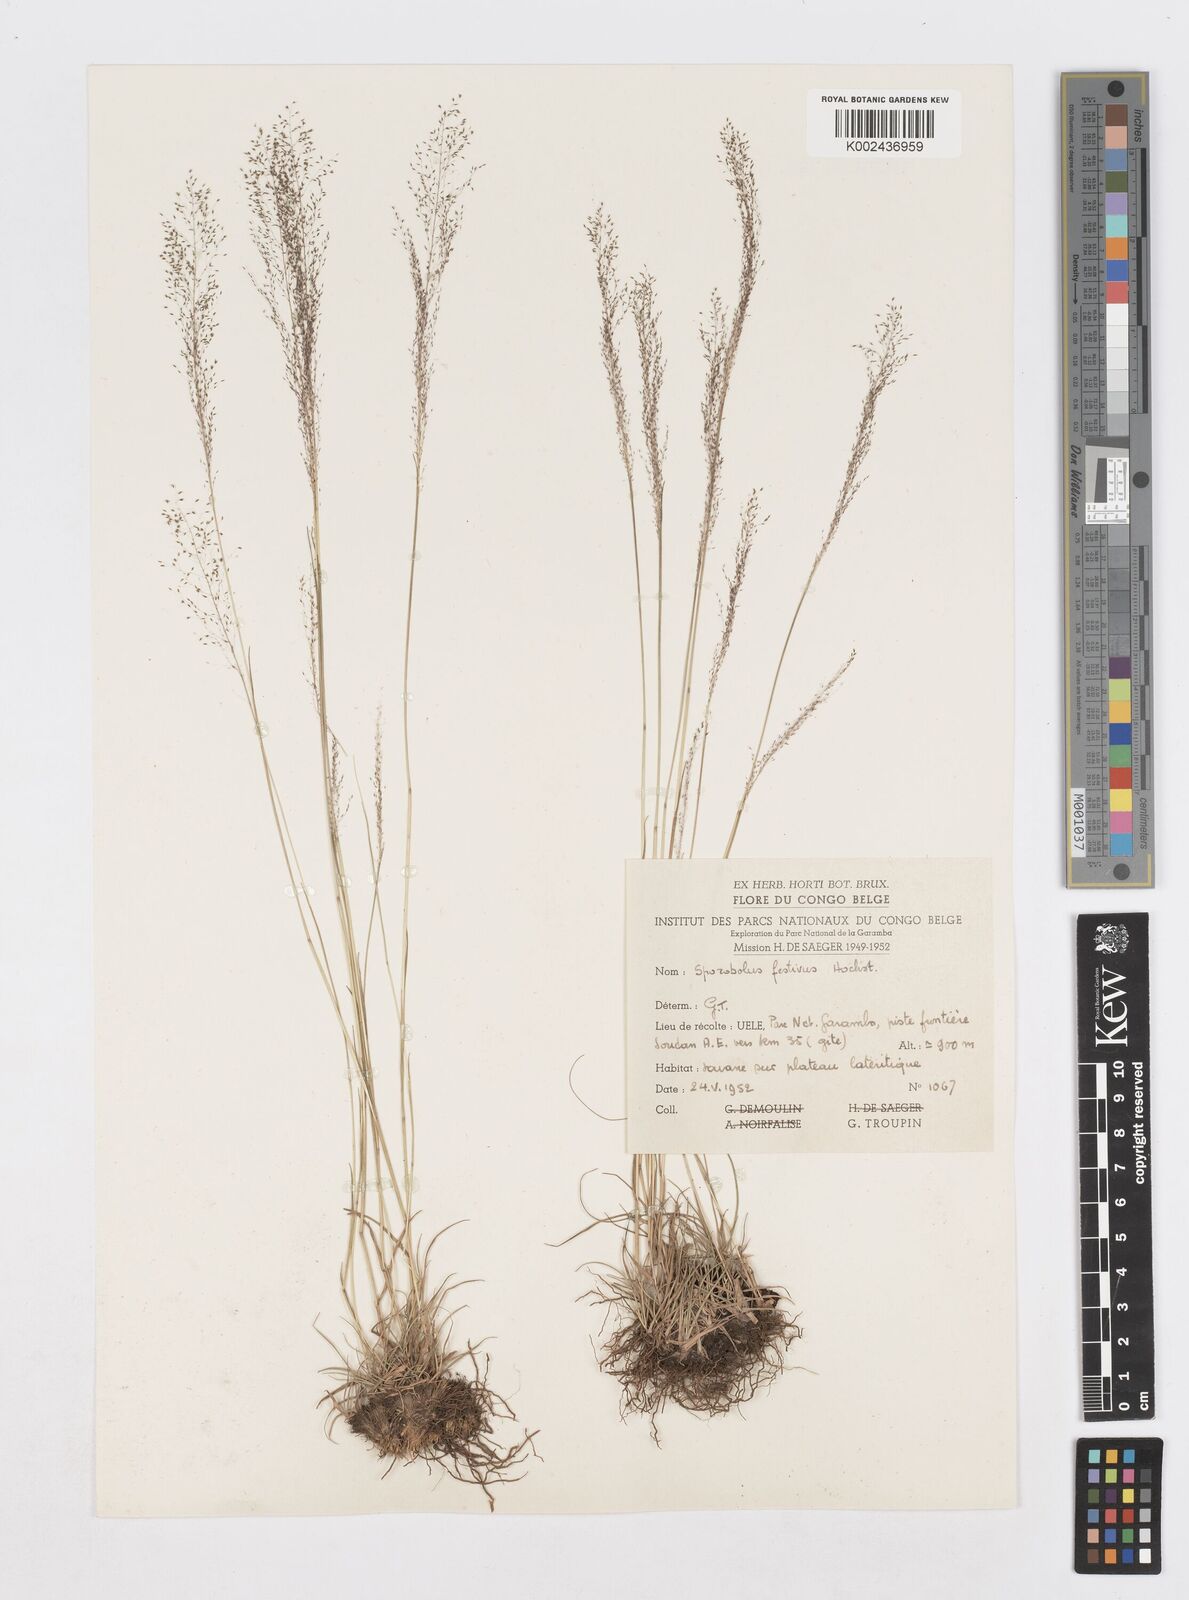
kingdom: Plantae
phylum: Tracheophyta
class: Liliopsida
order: Poales
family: Poaceae
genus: Sporobolus
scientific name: Sporobolus festivus
